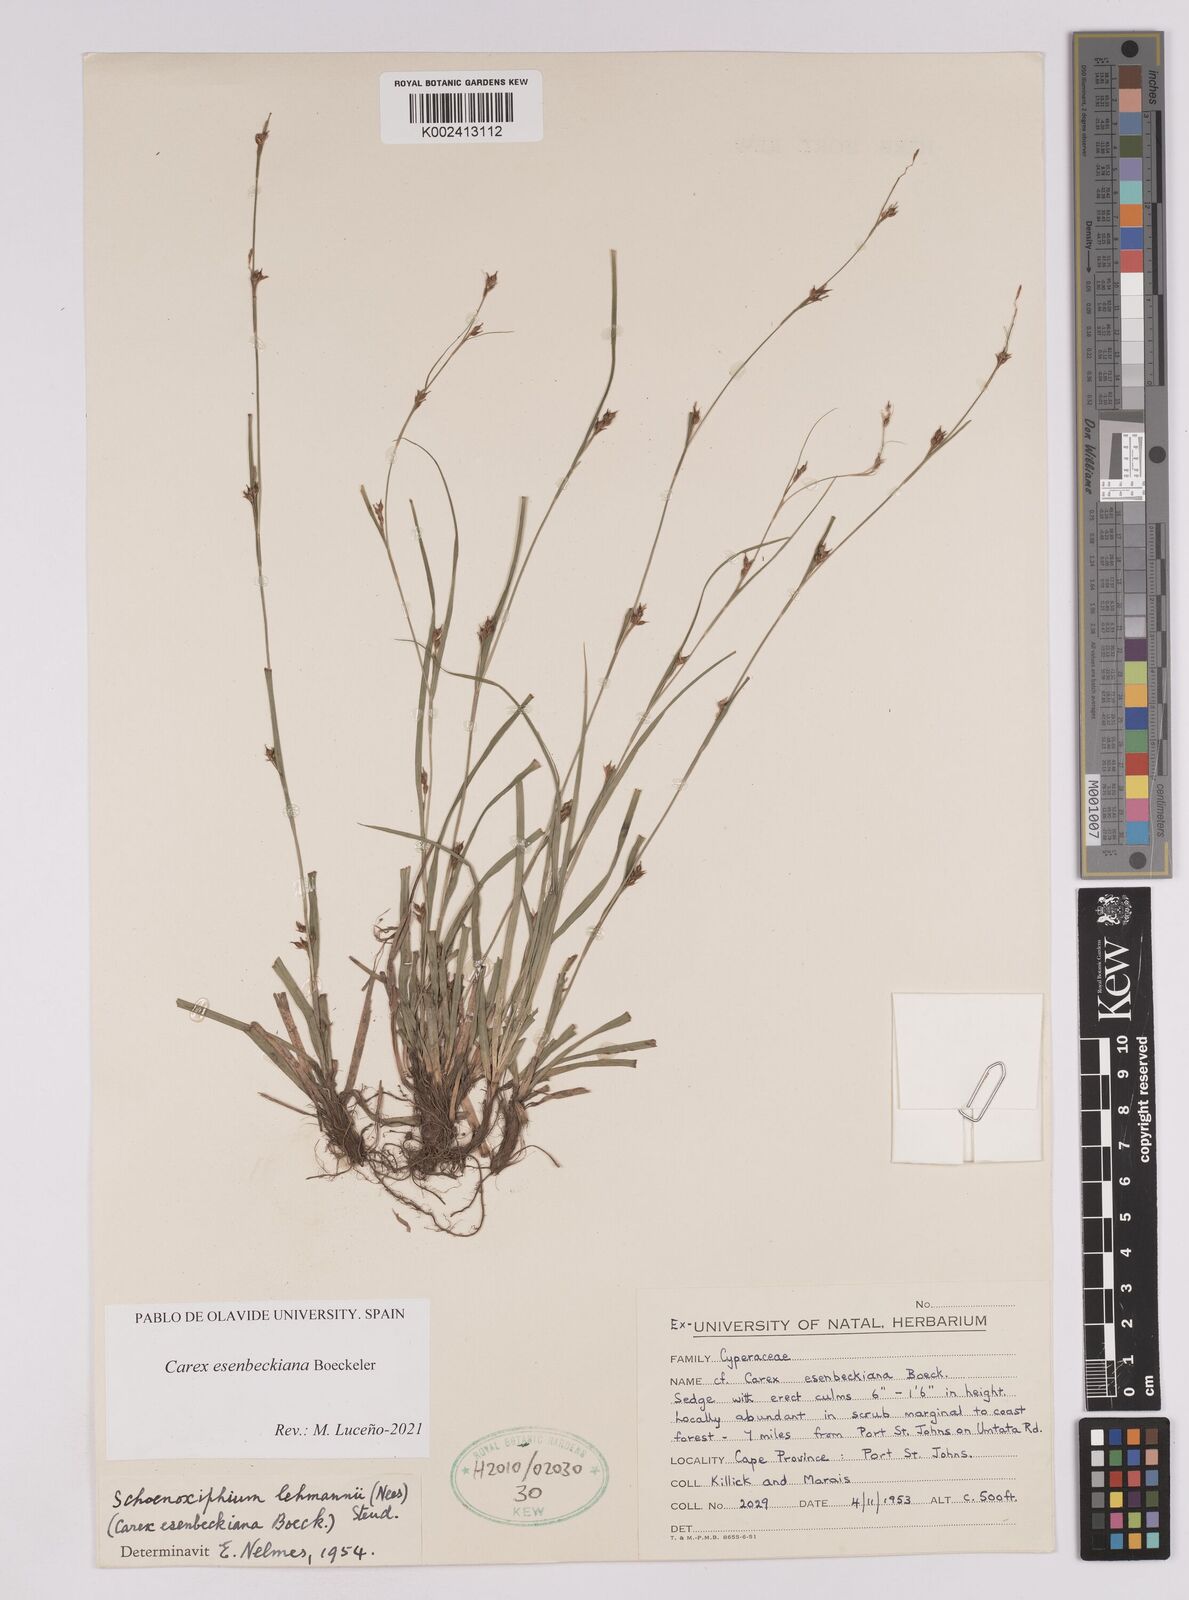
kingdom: Plantae
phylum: Tracheophyta
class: Liliopsida
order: Poales
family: Cyperaceae
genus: Carex
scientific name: Carex kukkoneniana
